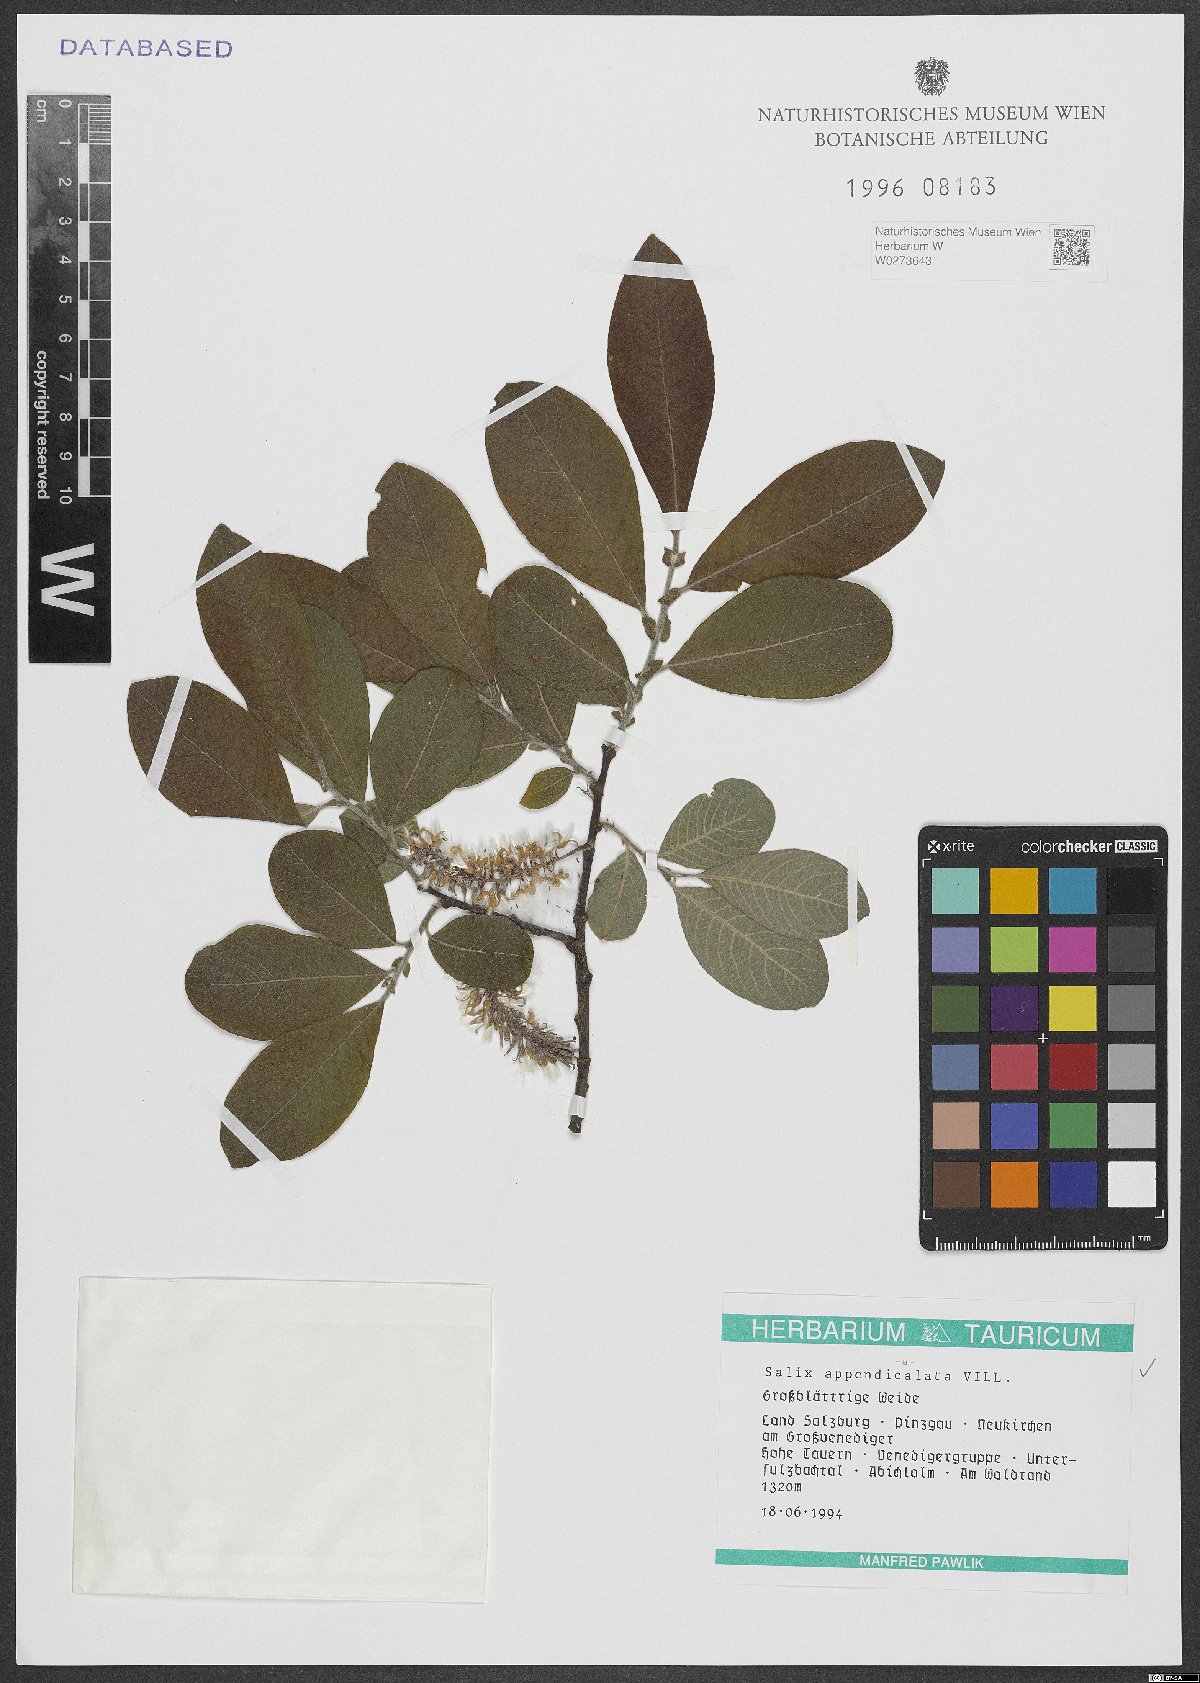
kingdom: Plantae
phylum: Tracheophyta
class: Magnoliopsida
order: Malpighiales
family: Salicaceae
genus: Salix
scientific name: Salix appendiculata
